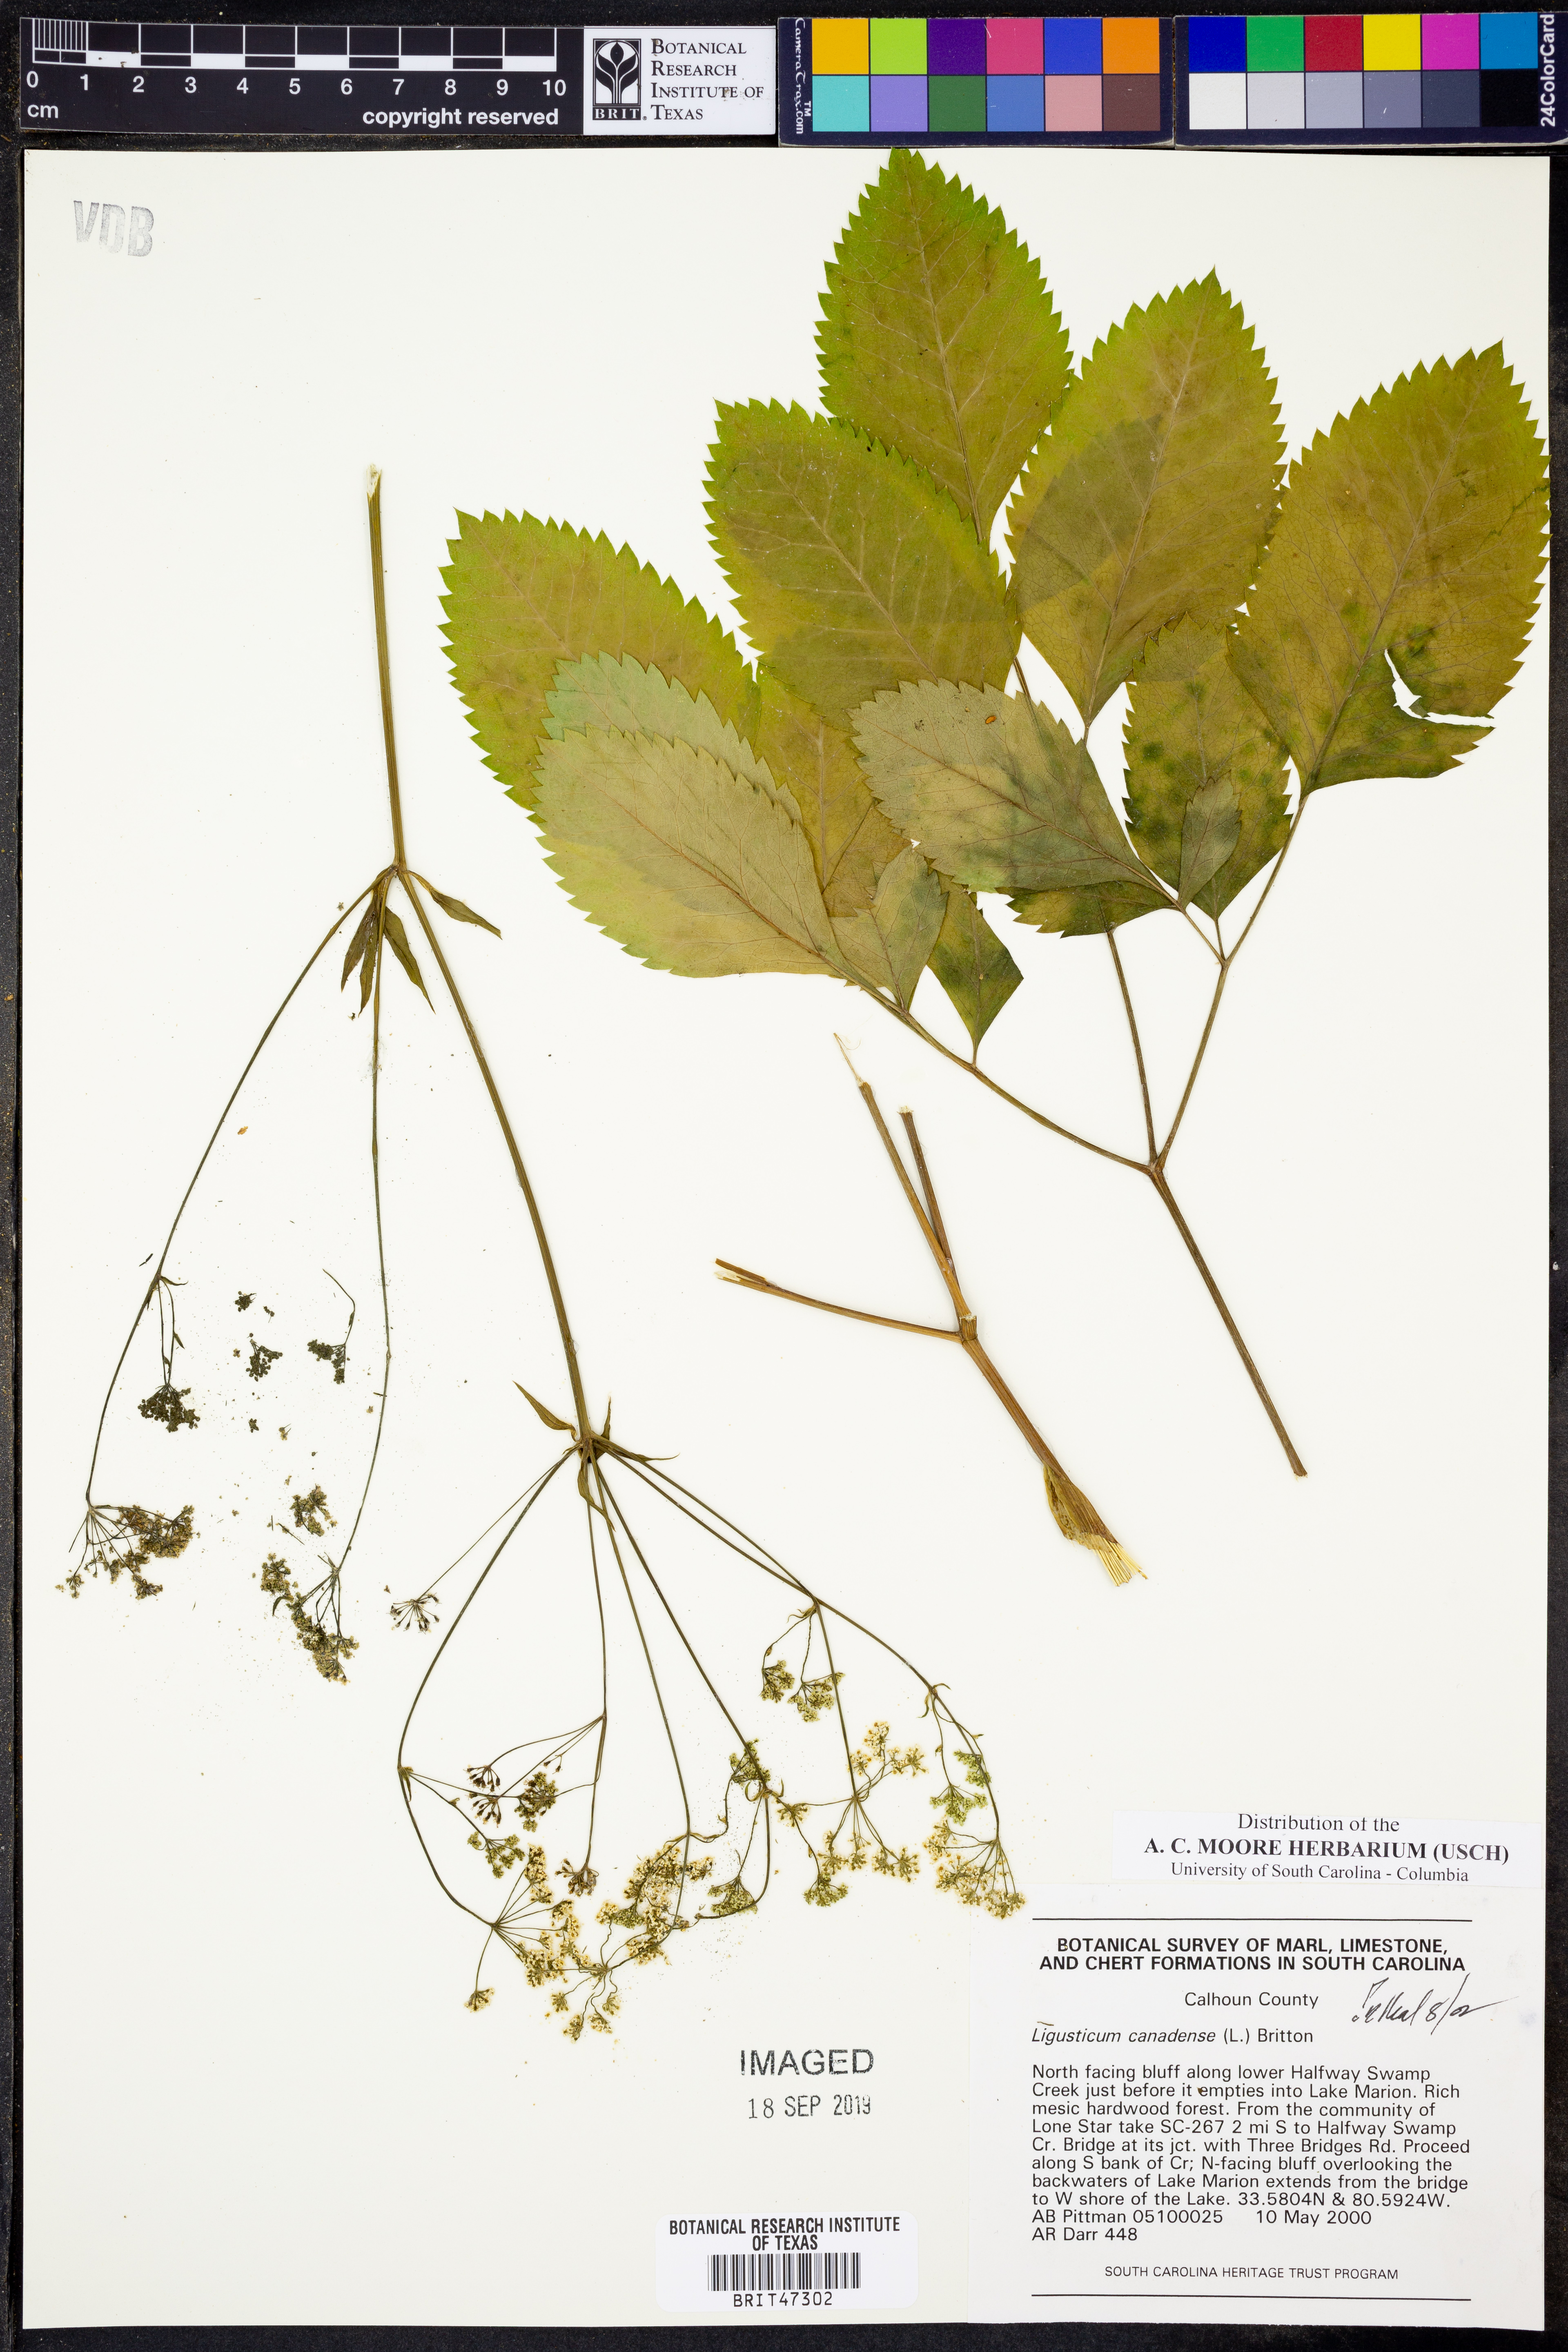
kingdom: Plantae
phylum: Tracheophyta
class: Magnoliopsida
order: Apiales
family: Apiaceae
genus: Ligusticum
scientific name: Ligusticum canadense
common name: American lovage
